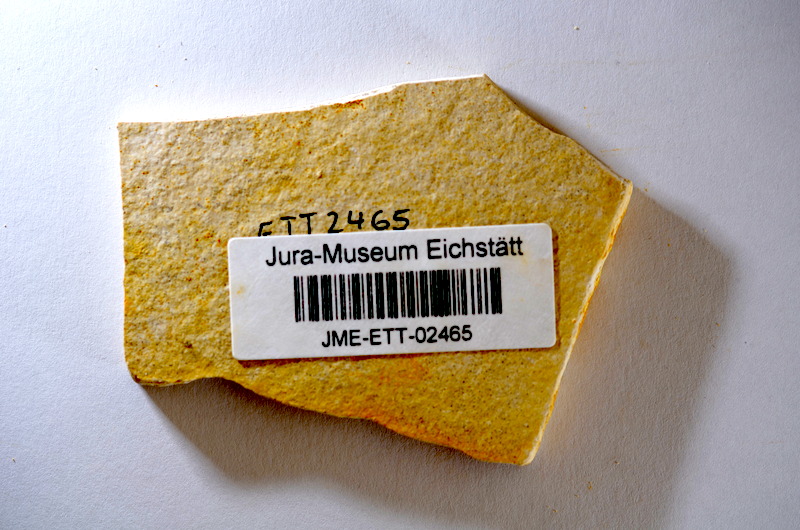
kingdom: Animalia
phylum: Chordata
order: Salmoniformes
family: Orthogonikleithridae
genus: Orthogonikleithrus
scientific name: Orthogonikleithrus hoelli
